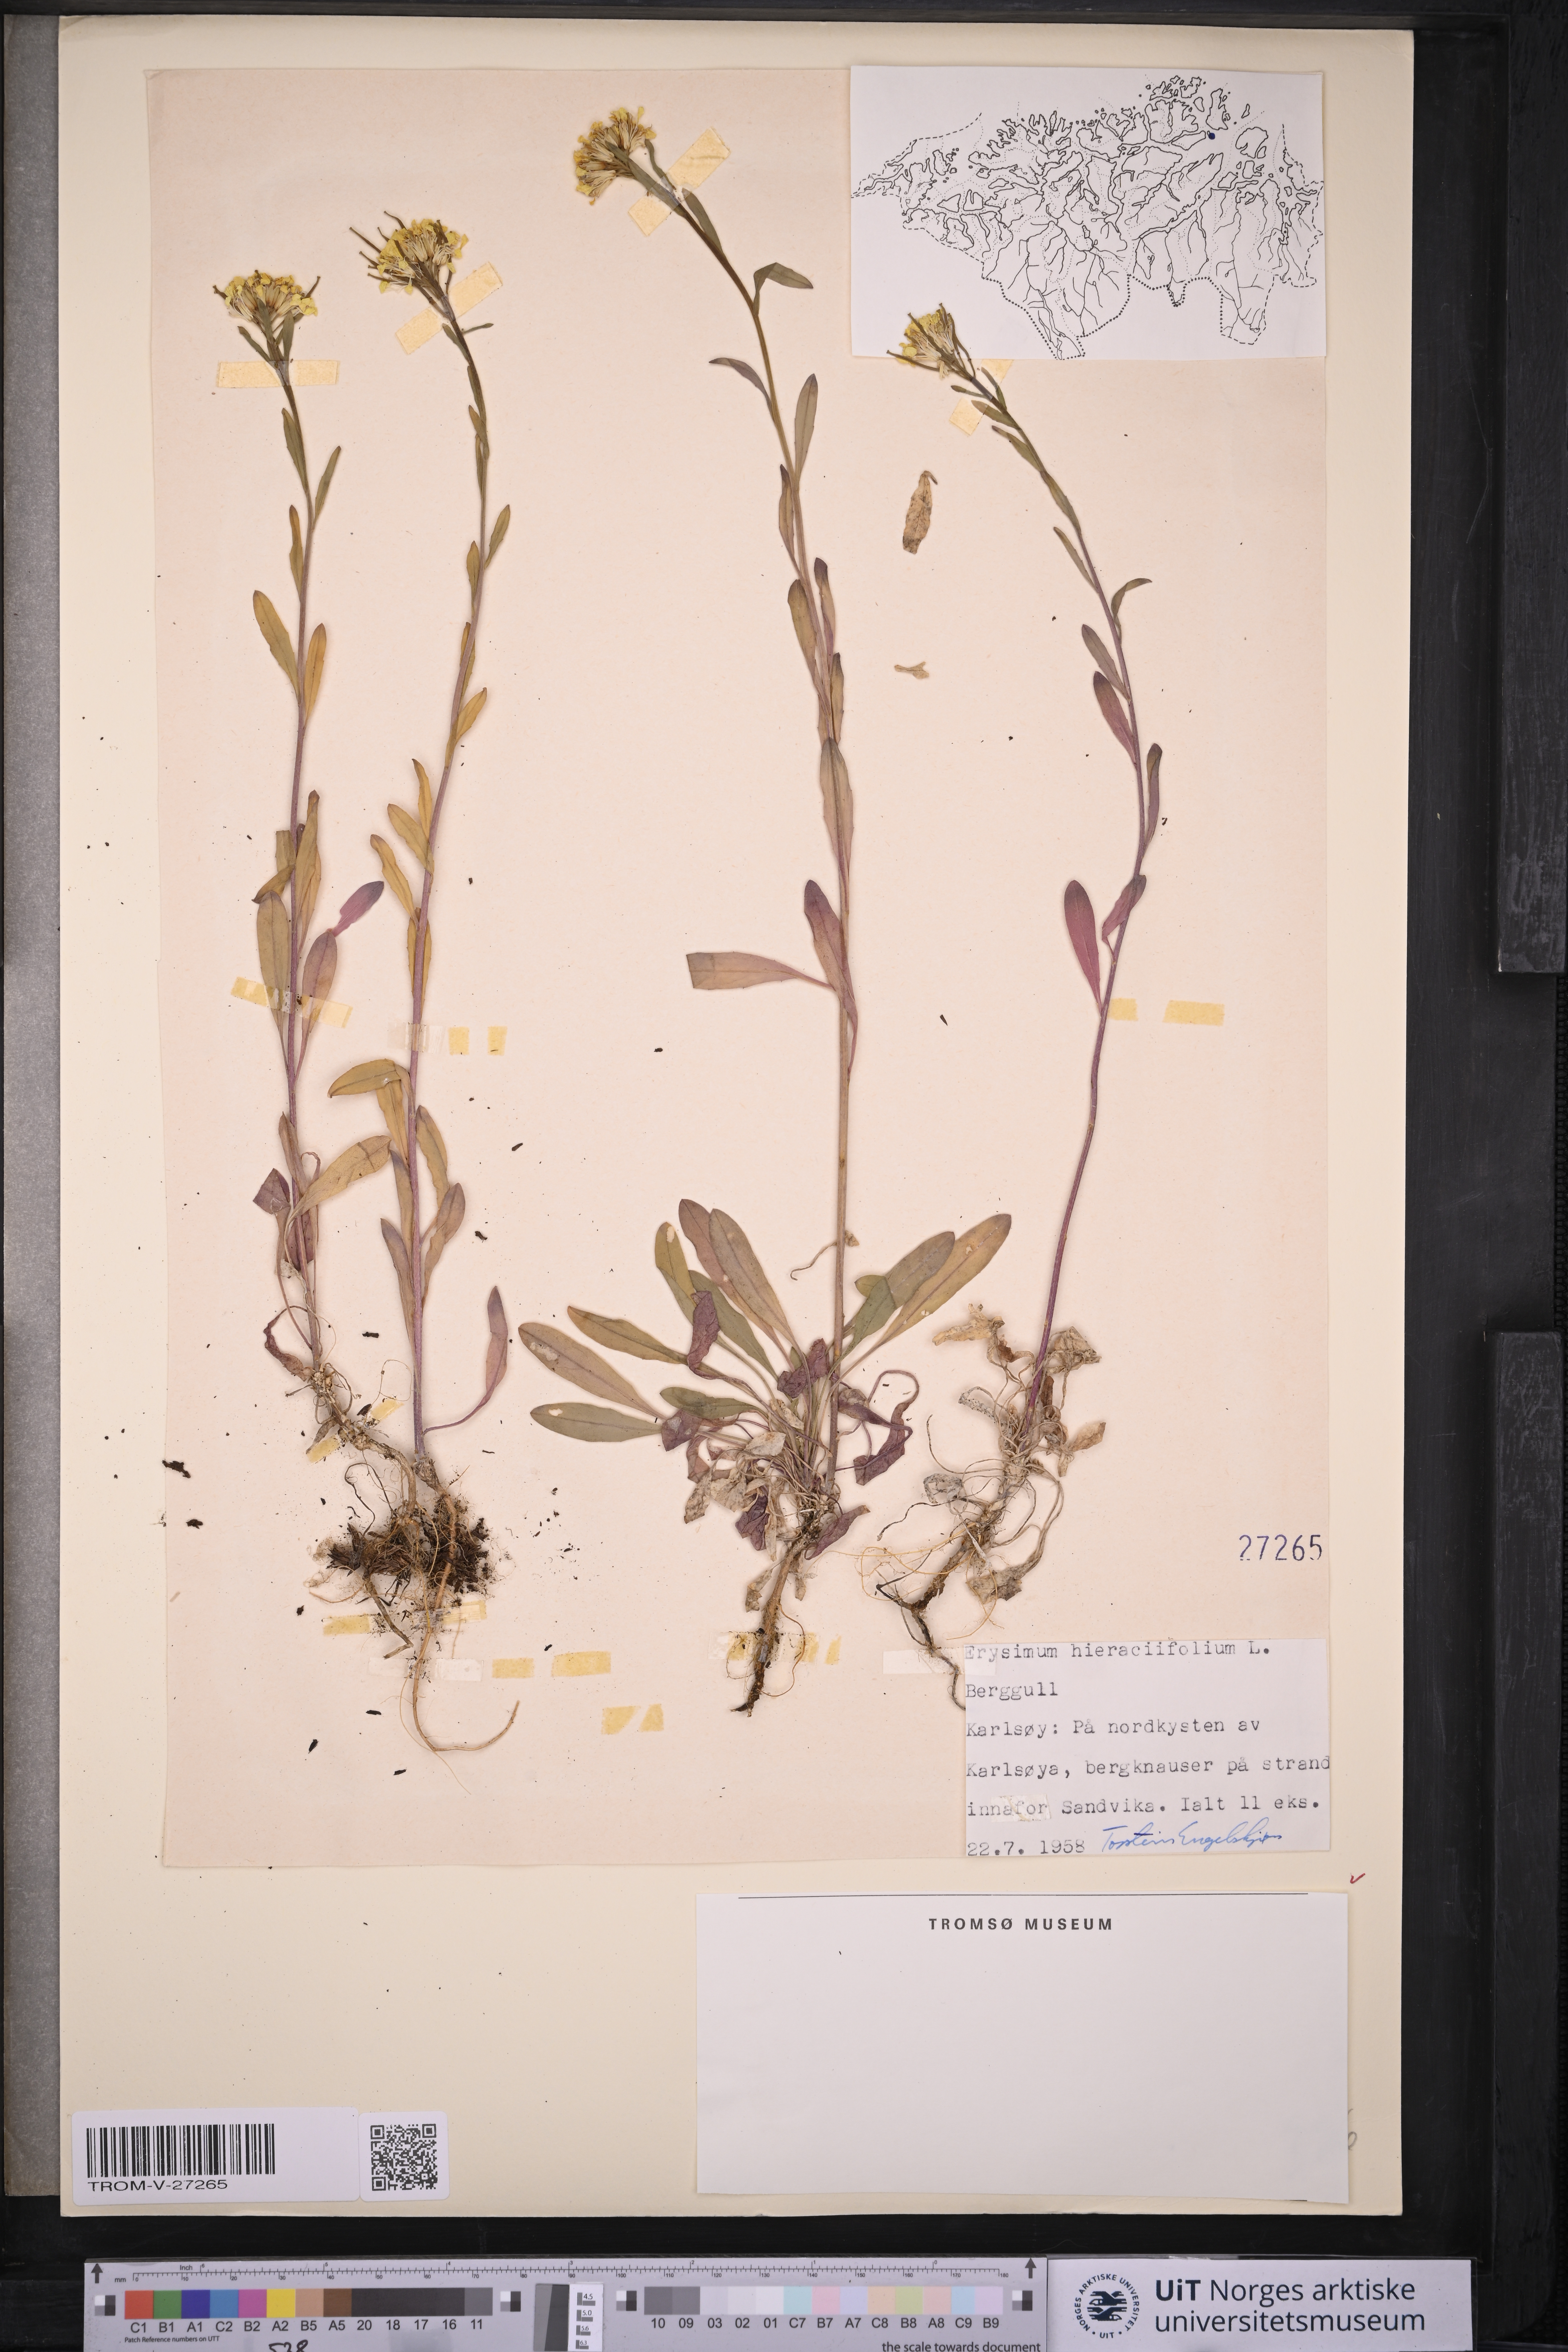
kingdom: Plantae
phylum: Tracheophyta
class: Magnoliopsida
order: Brassicales
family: Brassicaceae
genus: Erysimum
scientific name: Erysimum virgatum
